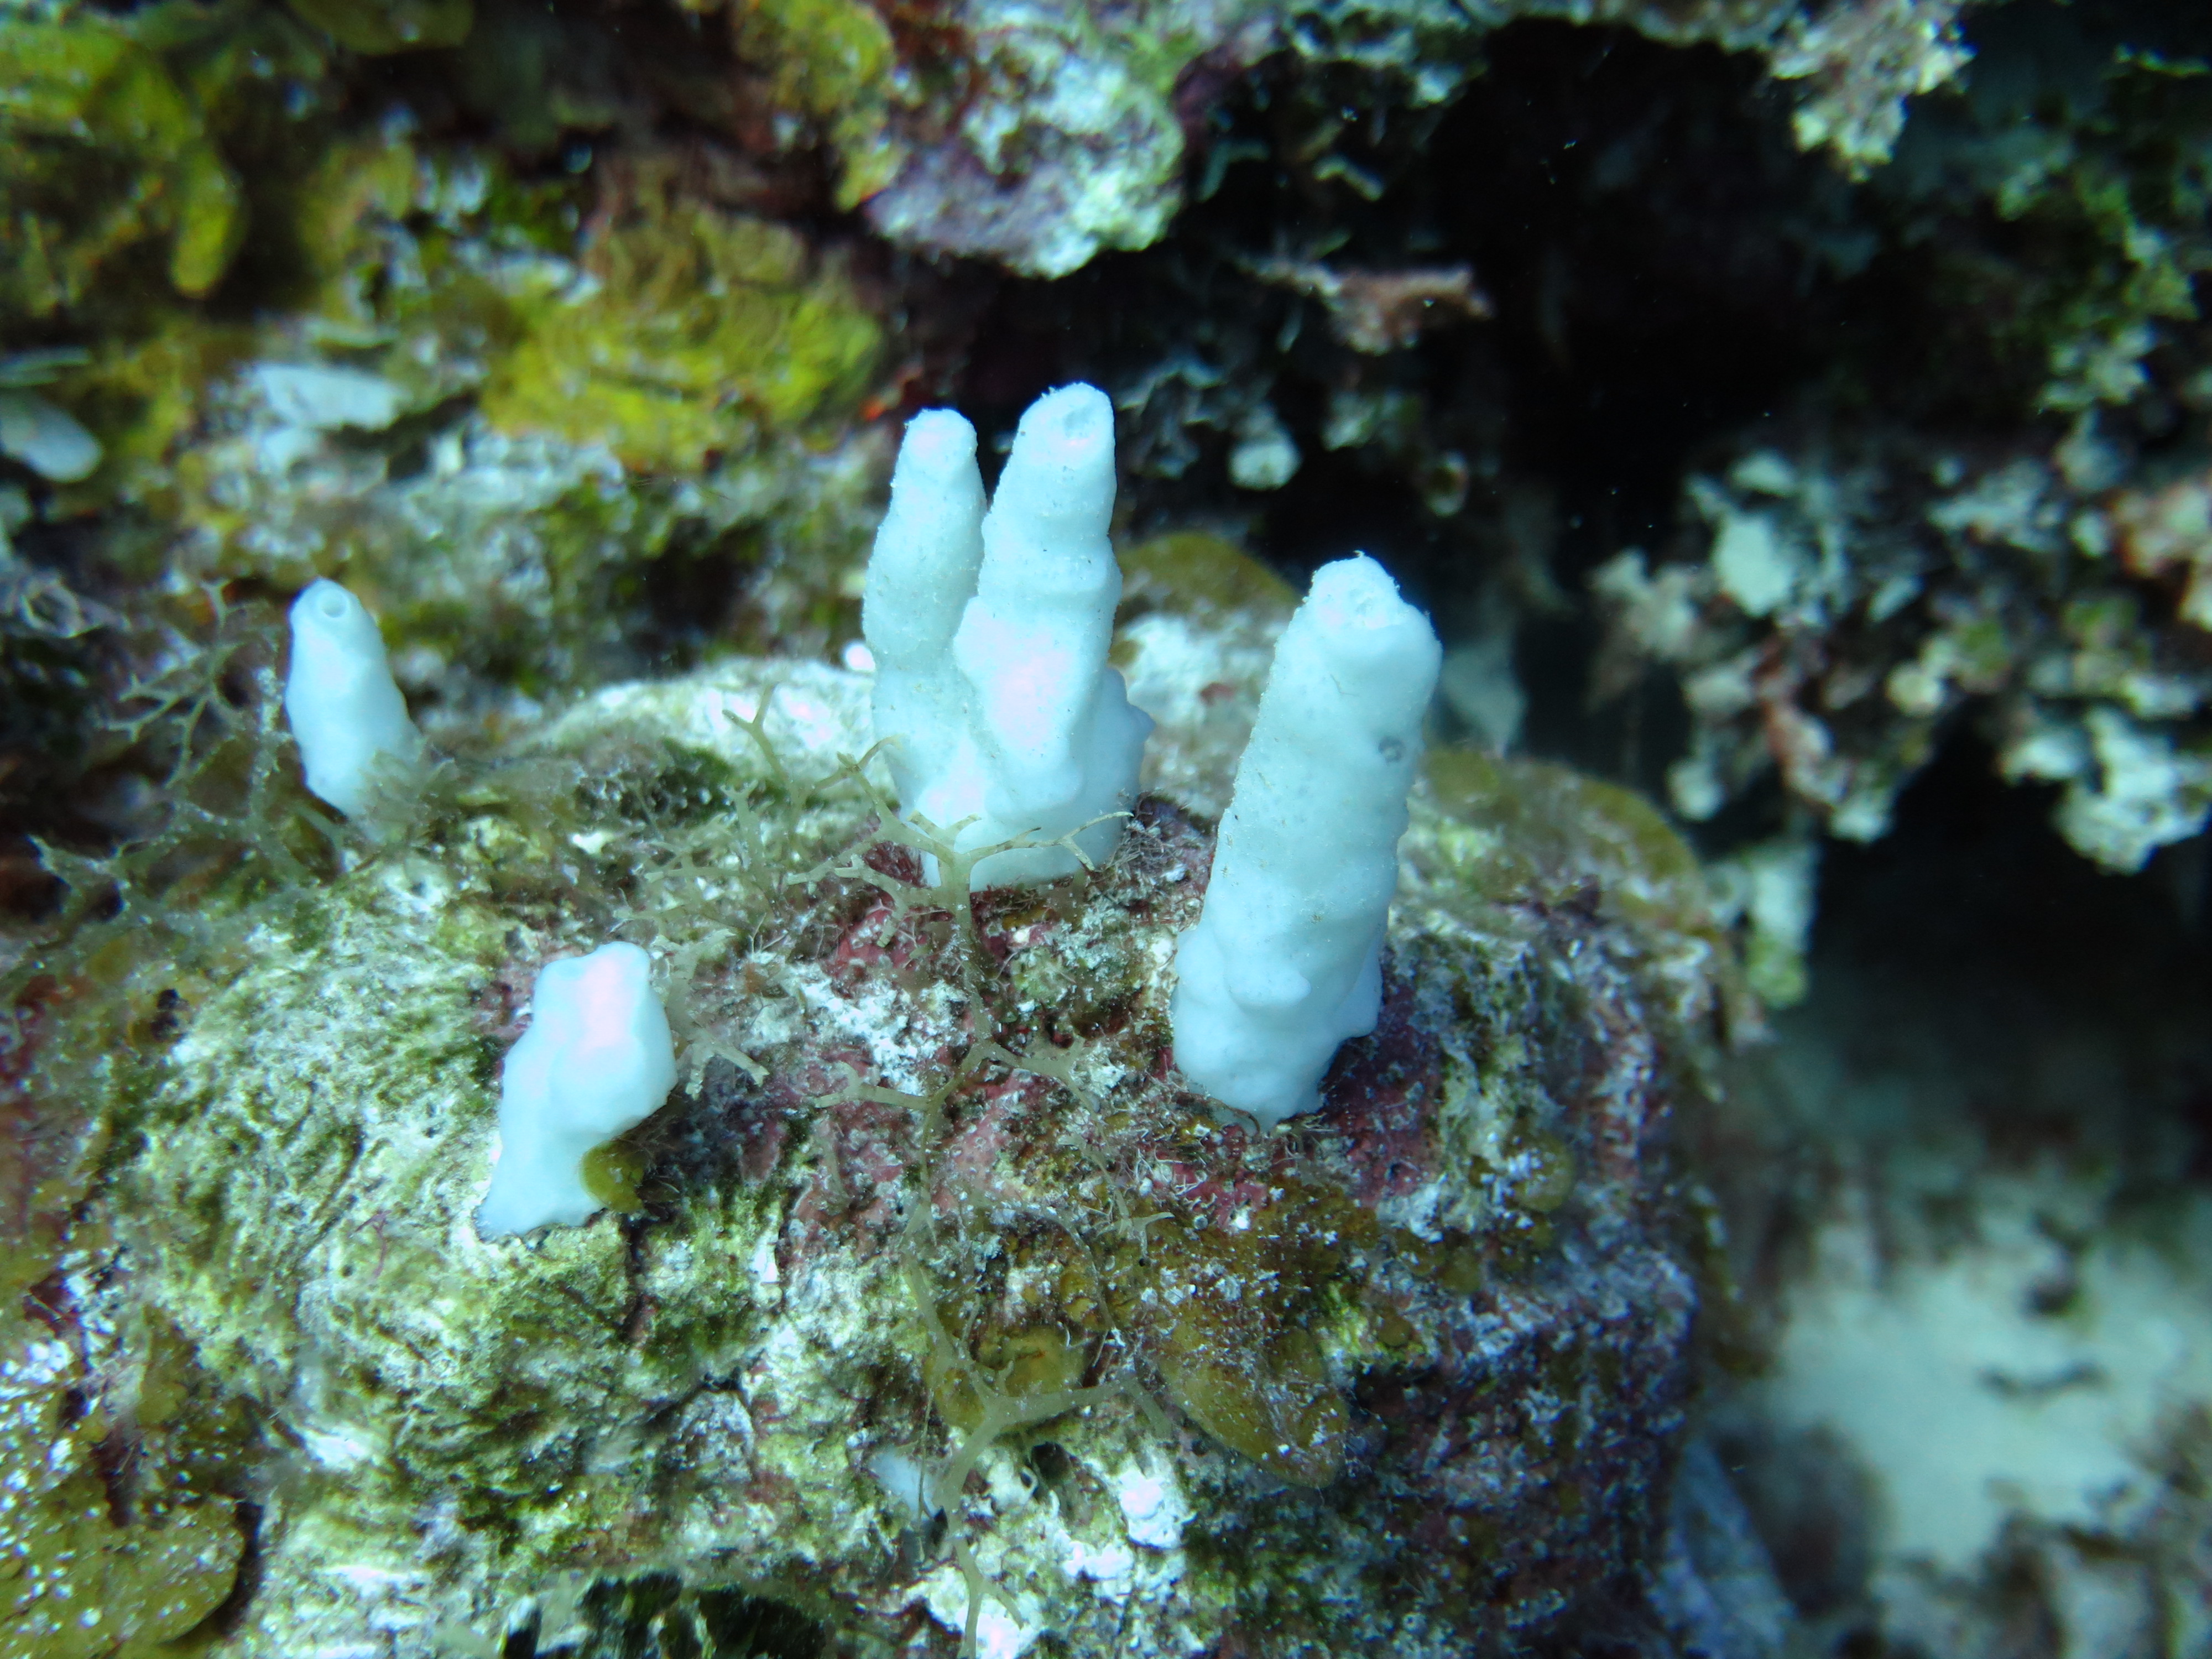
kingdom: Animalia
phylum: Porifera
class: Demospongiae
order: Haplosclerida
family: Phloeodictyidae
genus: Siphonodictyon
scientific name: Siphonodictyon xamaycaense
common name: Jamaica boring sponge
